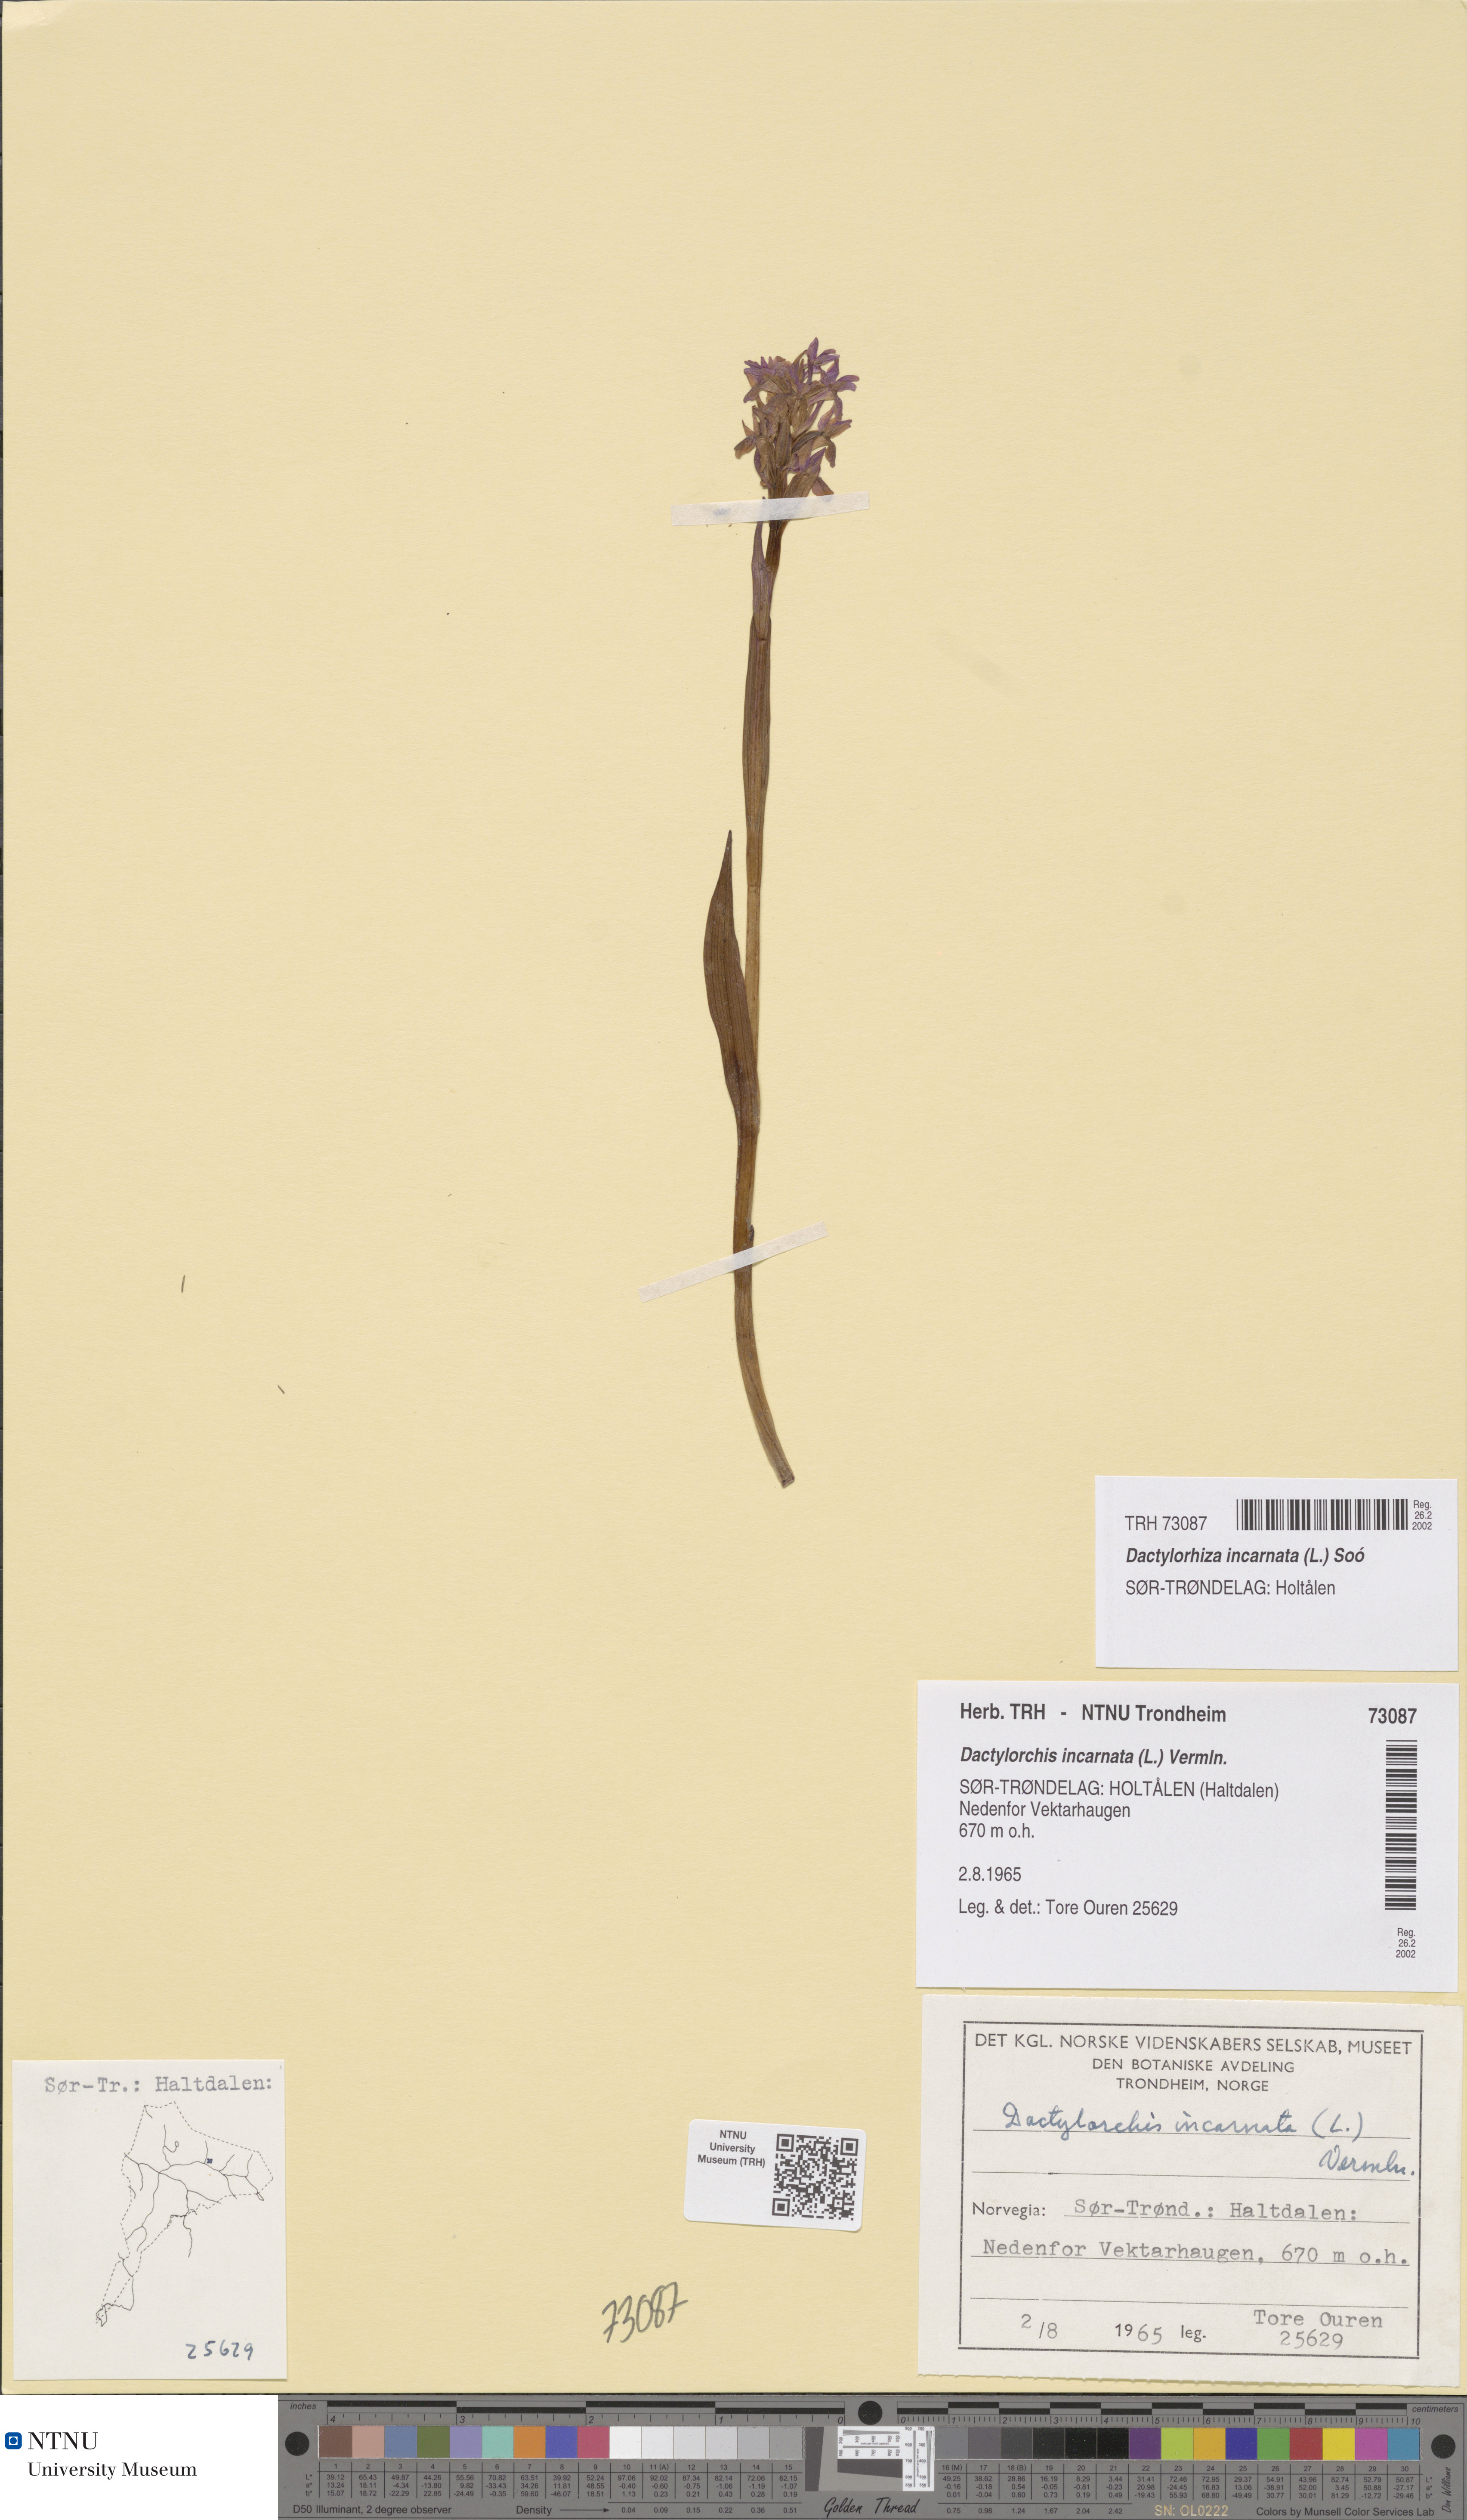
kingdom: Plantae
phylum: Tracheophyta
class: Liliopsida
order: Asparagales
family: Orchidaceae
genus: Dactylorhiza
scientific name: Dactylorhiza incarnata
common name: Early marsh-orchid
